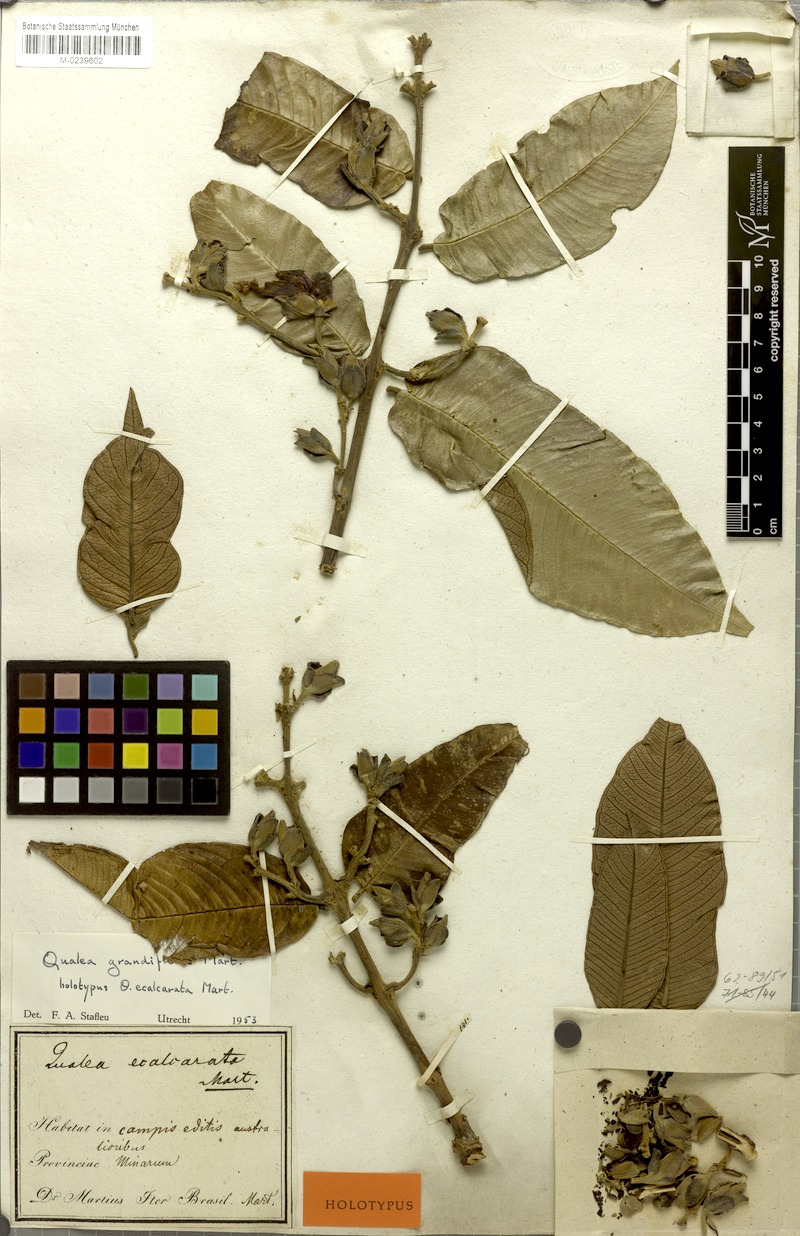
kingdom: Plantae
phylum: Tracheophyta
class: Magnoliopsida
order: Myrtales
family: Vochysiaceae
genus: Qualea
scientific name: Qualea grandiflora
